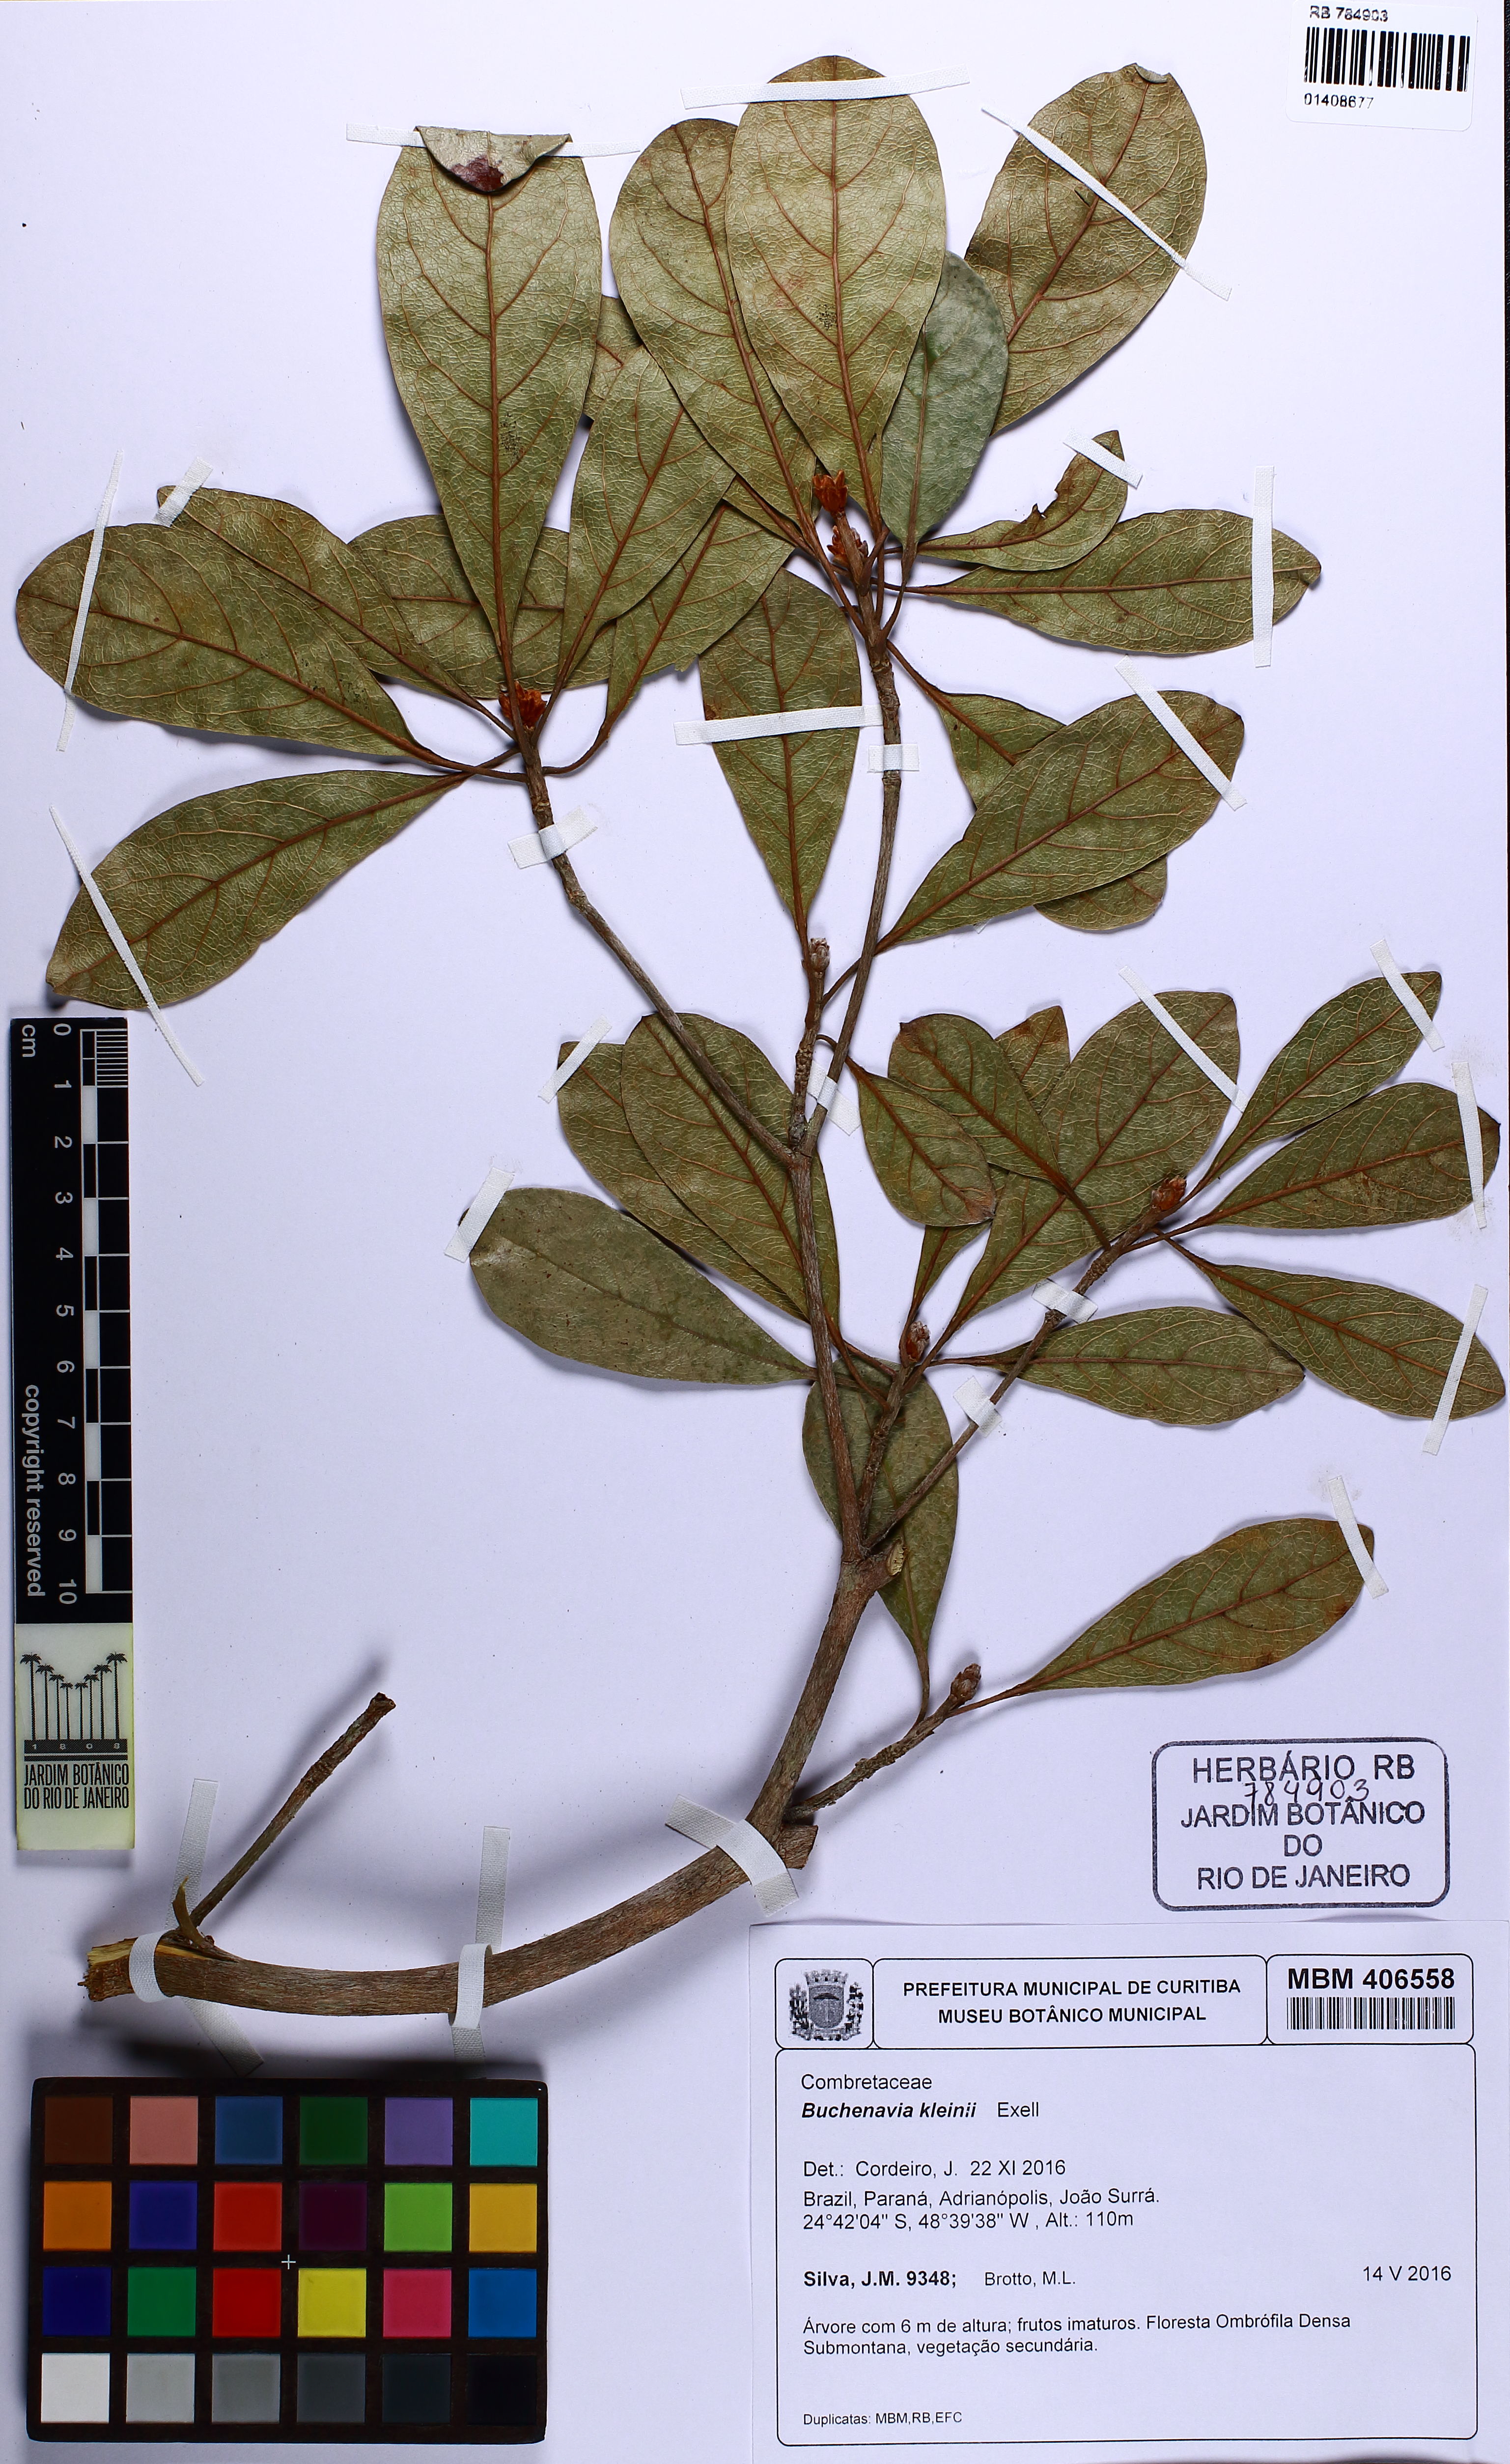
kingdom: Plantae
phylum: Tracheophyta
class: Magnoliopsida
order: Myrtales
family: Combretaceae
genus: Terminalia
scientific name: Terminalia kleinii
